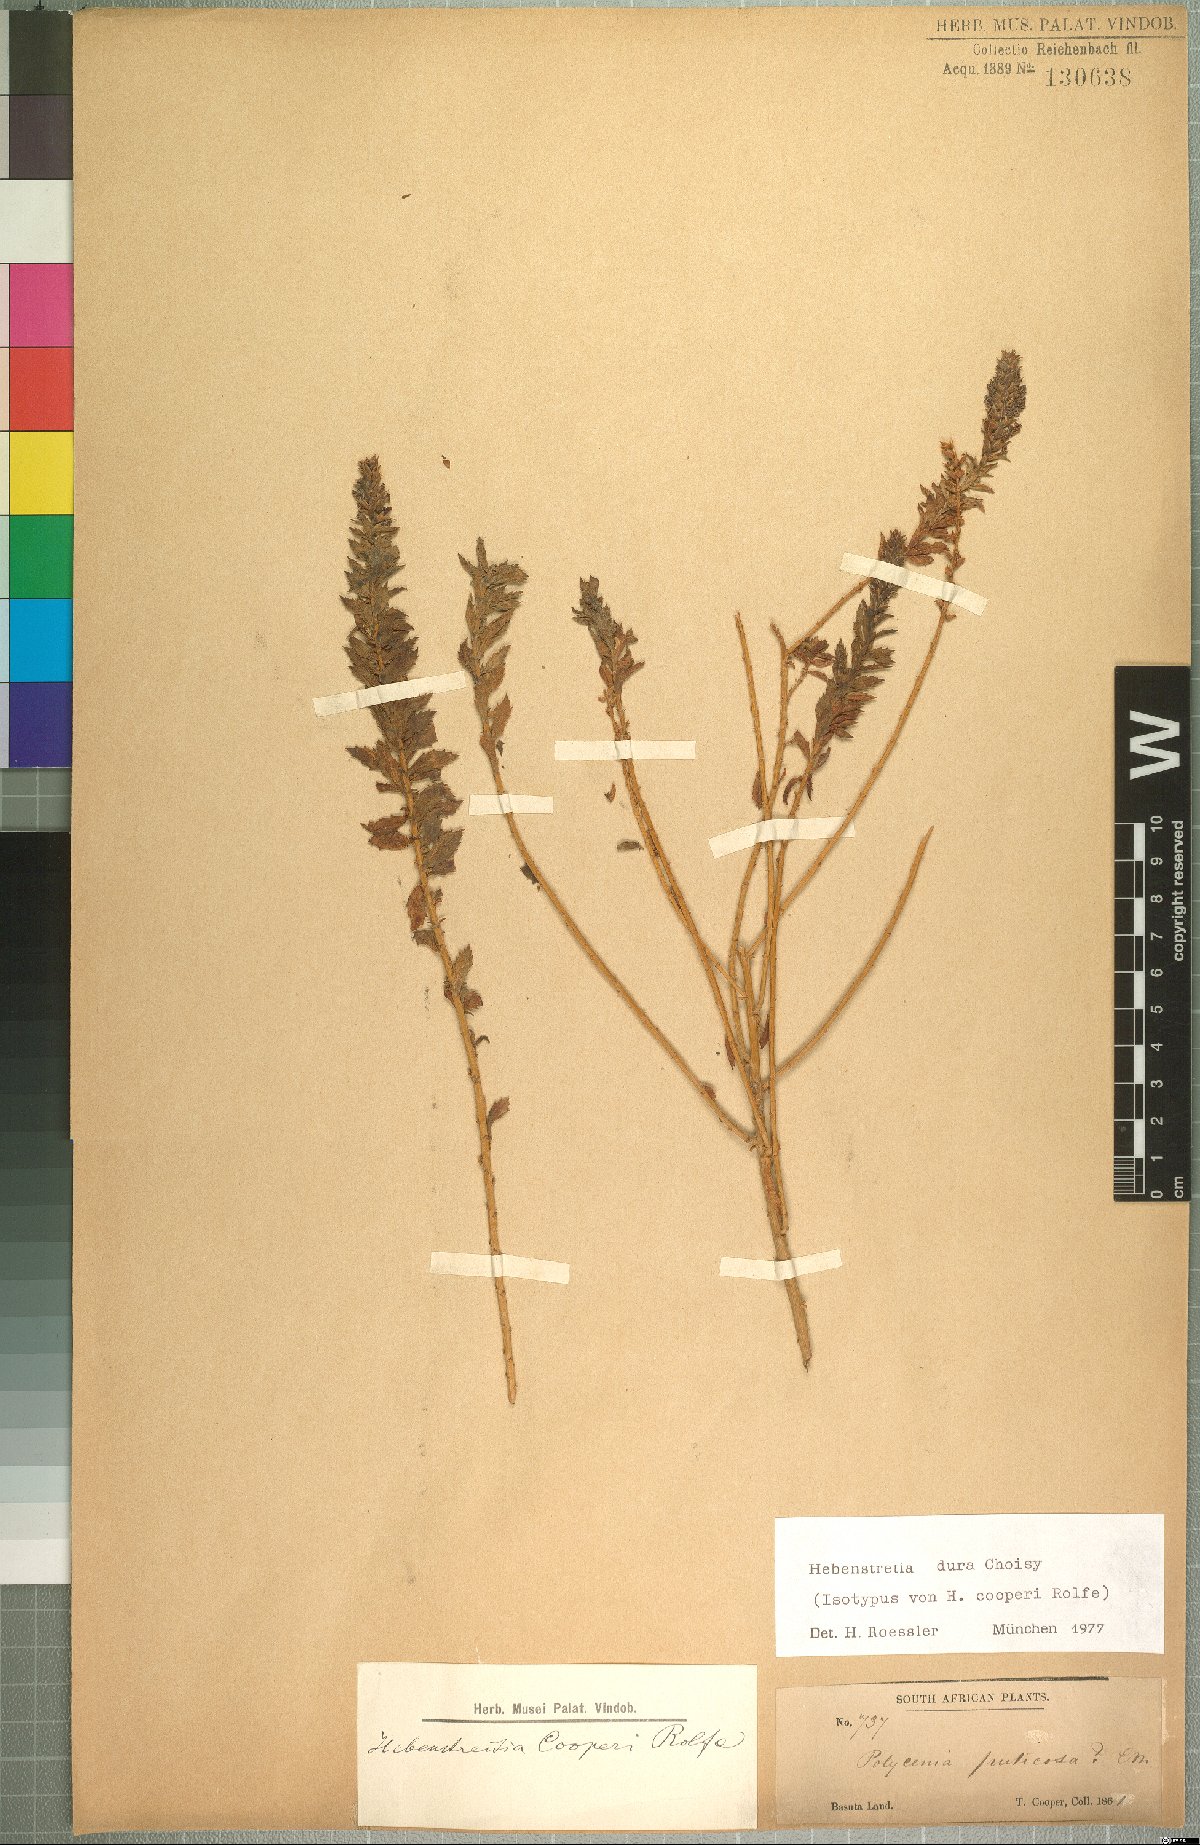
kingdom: Plantae
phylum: Tracheophyta
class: Magnoliopsida
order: Lamiales
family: Scrophulariaceae
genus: Hebenstretia
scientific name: Hebenstretia dura
